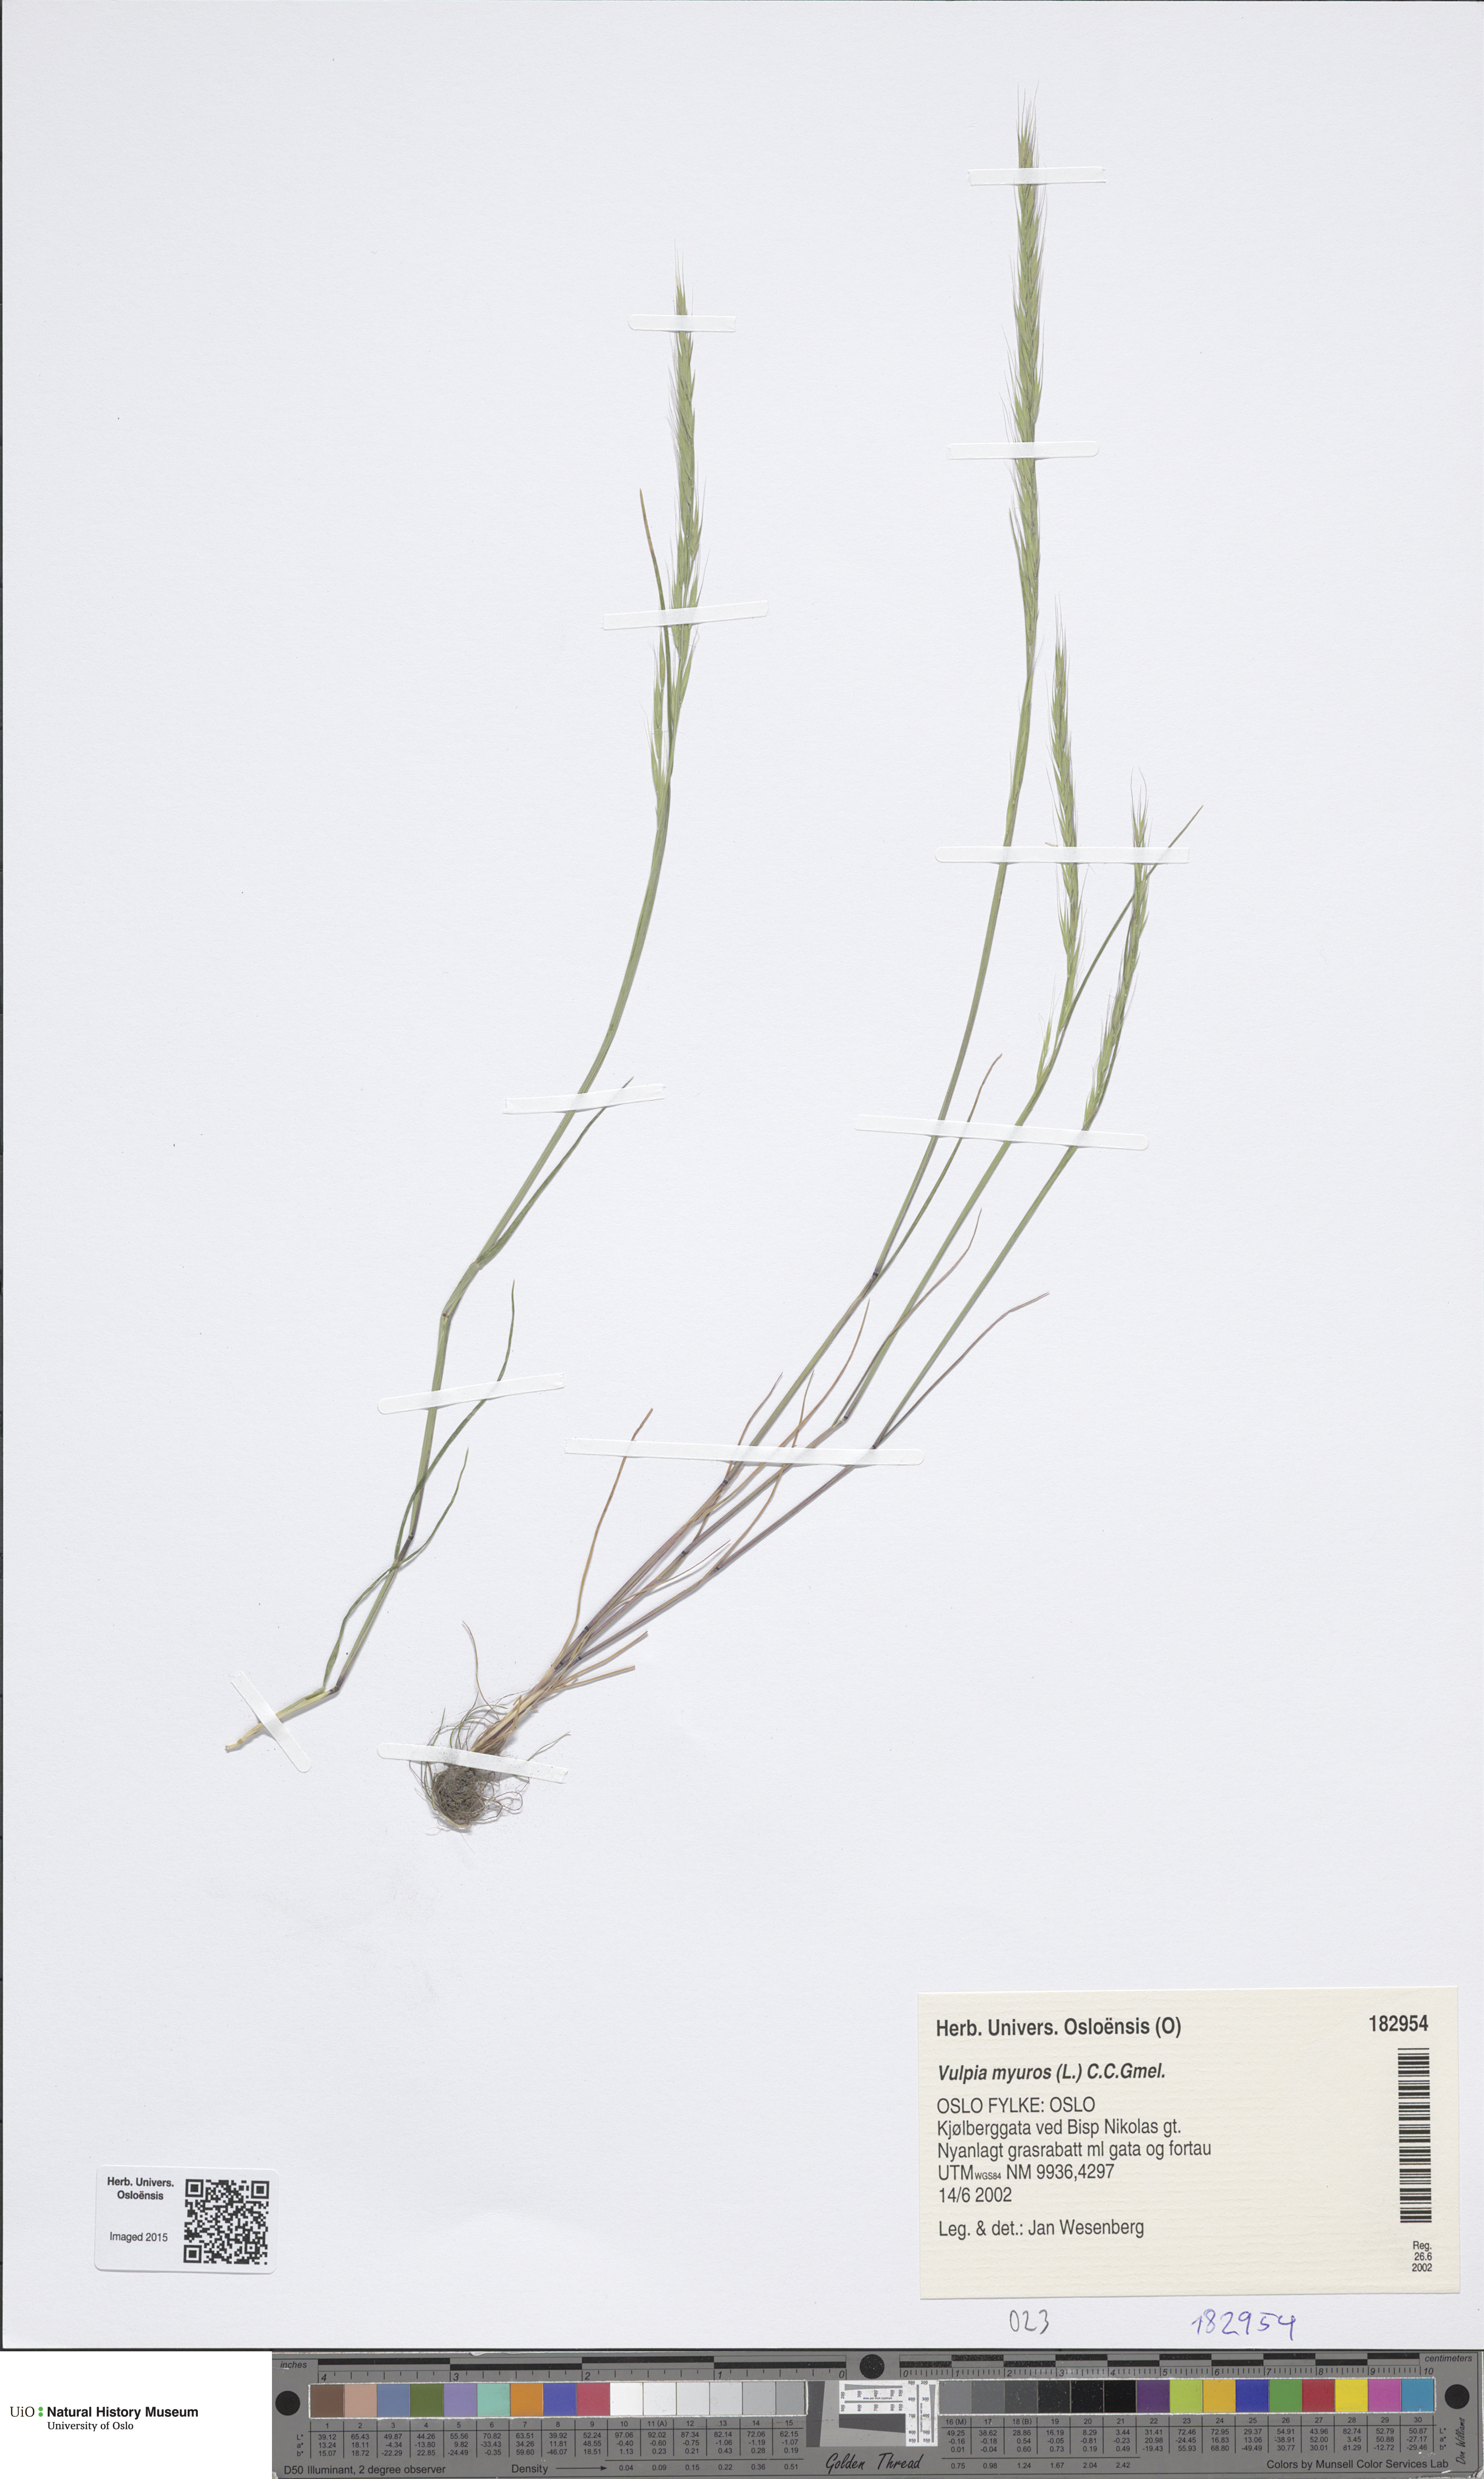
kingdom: Plantae
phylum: Tracheophyta
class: Liliopsida
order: Poales
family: Poaceae
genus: Festuca
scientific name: Festuca myuros
